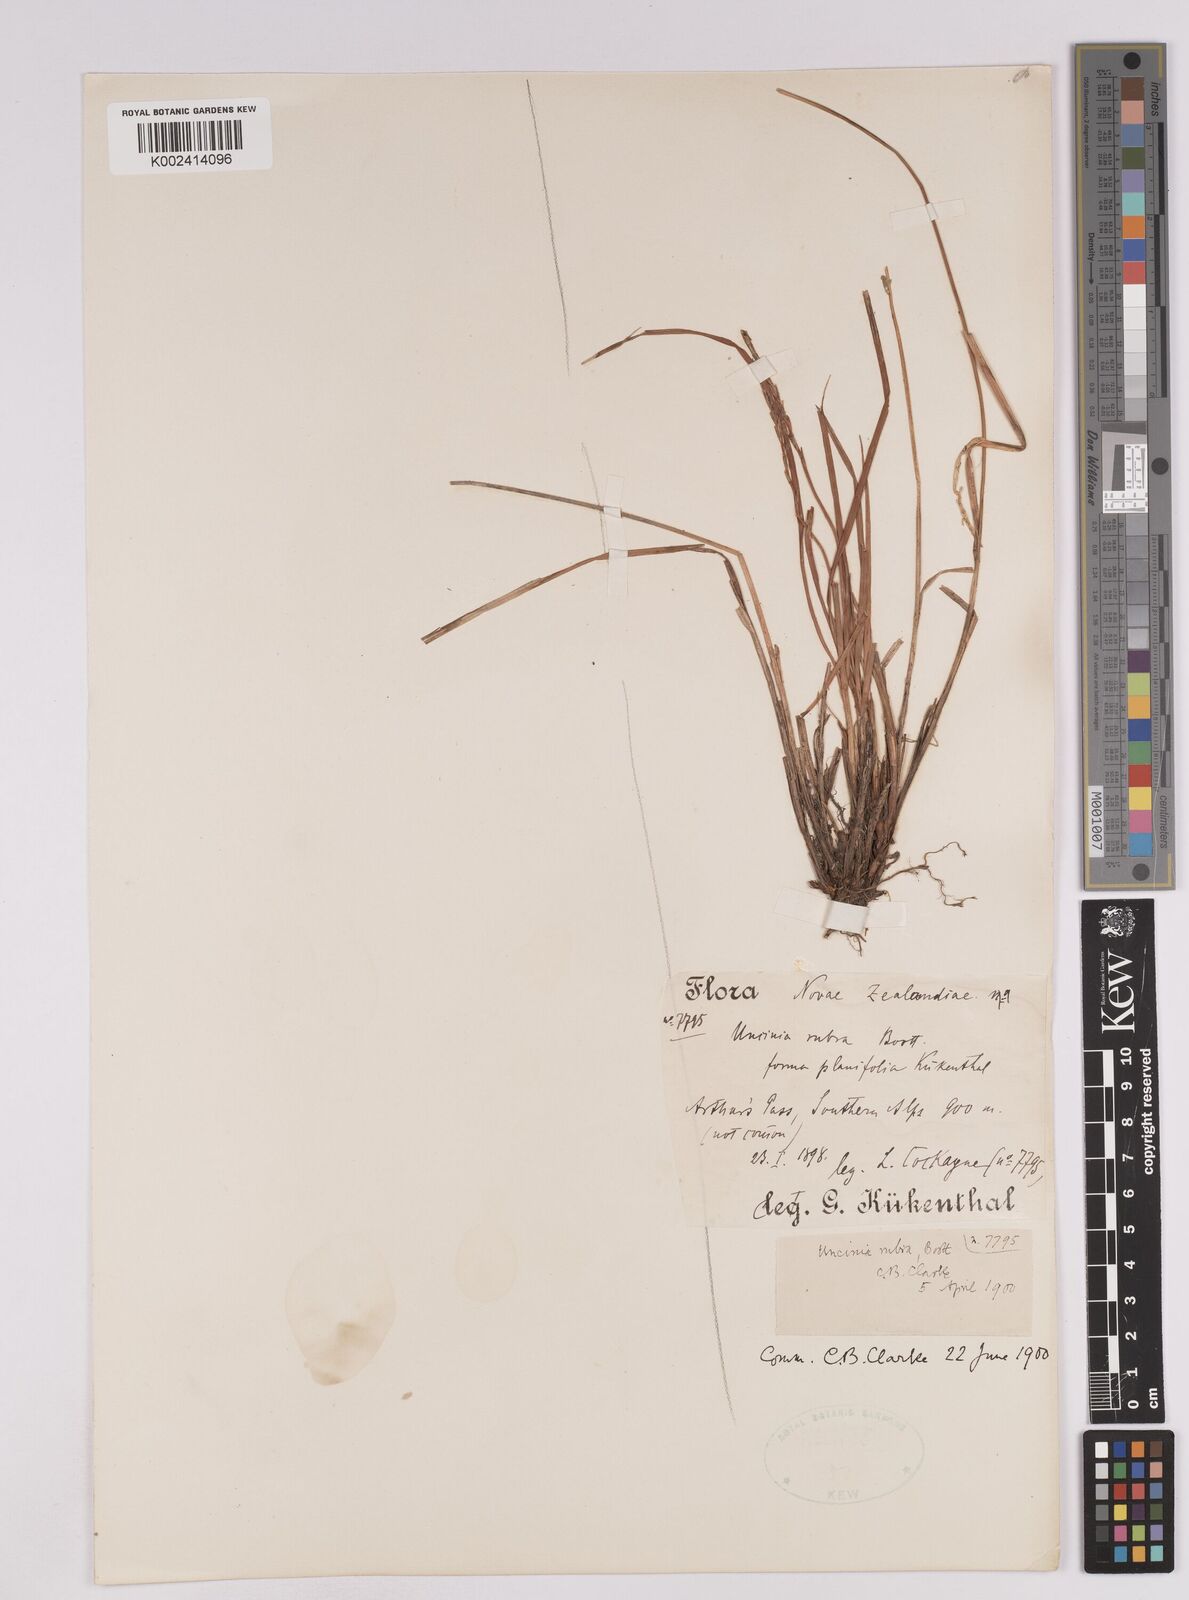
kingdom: Plantae
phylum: Tracheophyta
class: Liliopsida
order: Poales
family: Cyperaceae
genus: Carex
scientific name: Carex punicea
